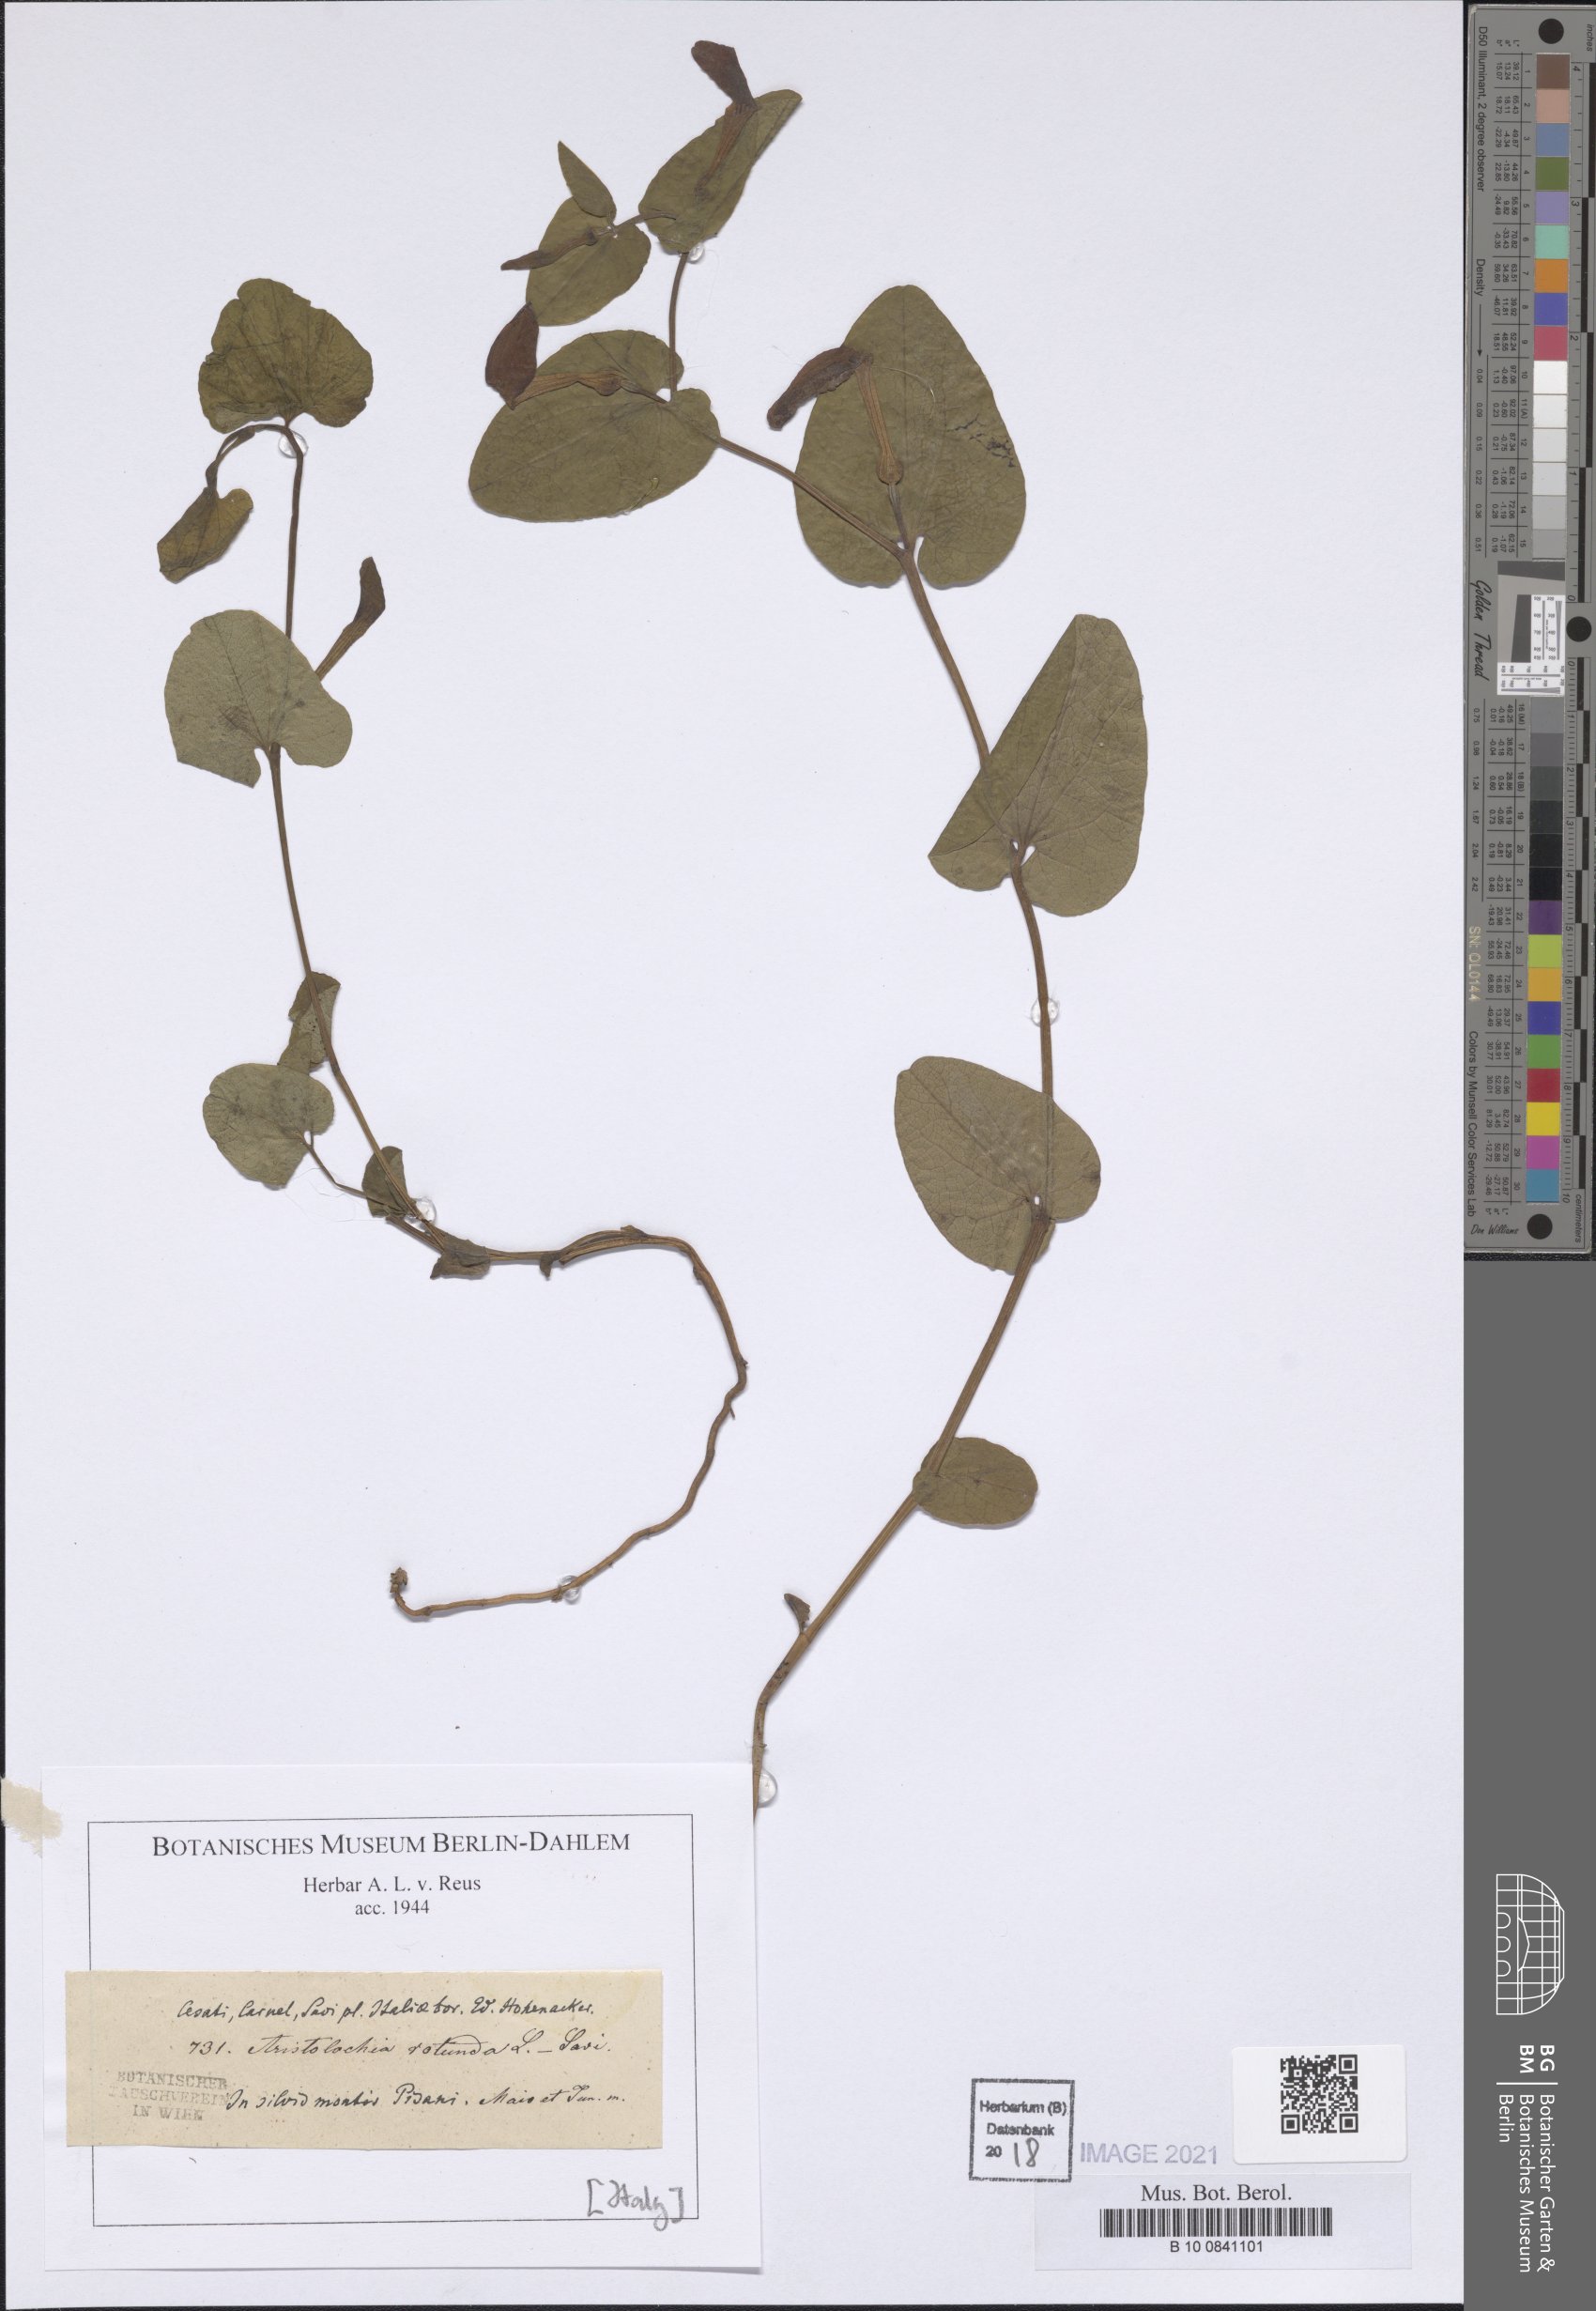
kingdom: Plantae
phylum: Tracheophyta
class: Magnoliopsida
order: Piperales
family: Aristolochiaceae
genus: Aristolochia
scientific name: Aristolochia rotunda
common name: Smearwort
